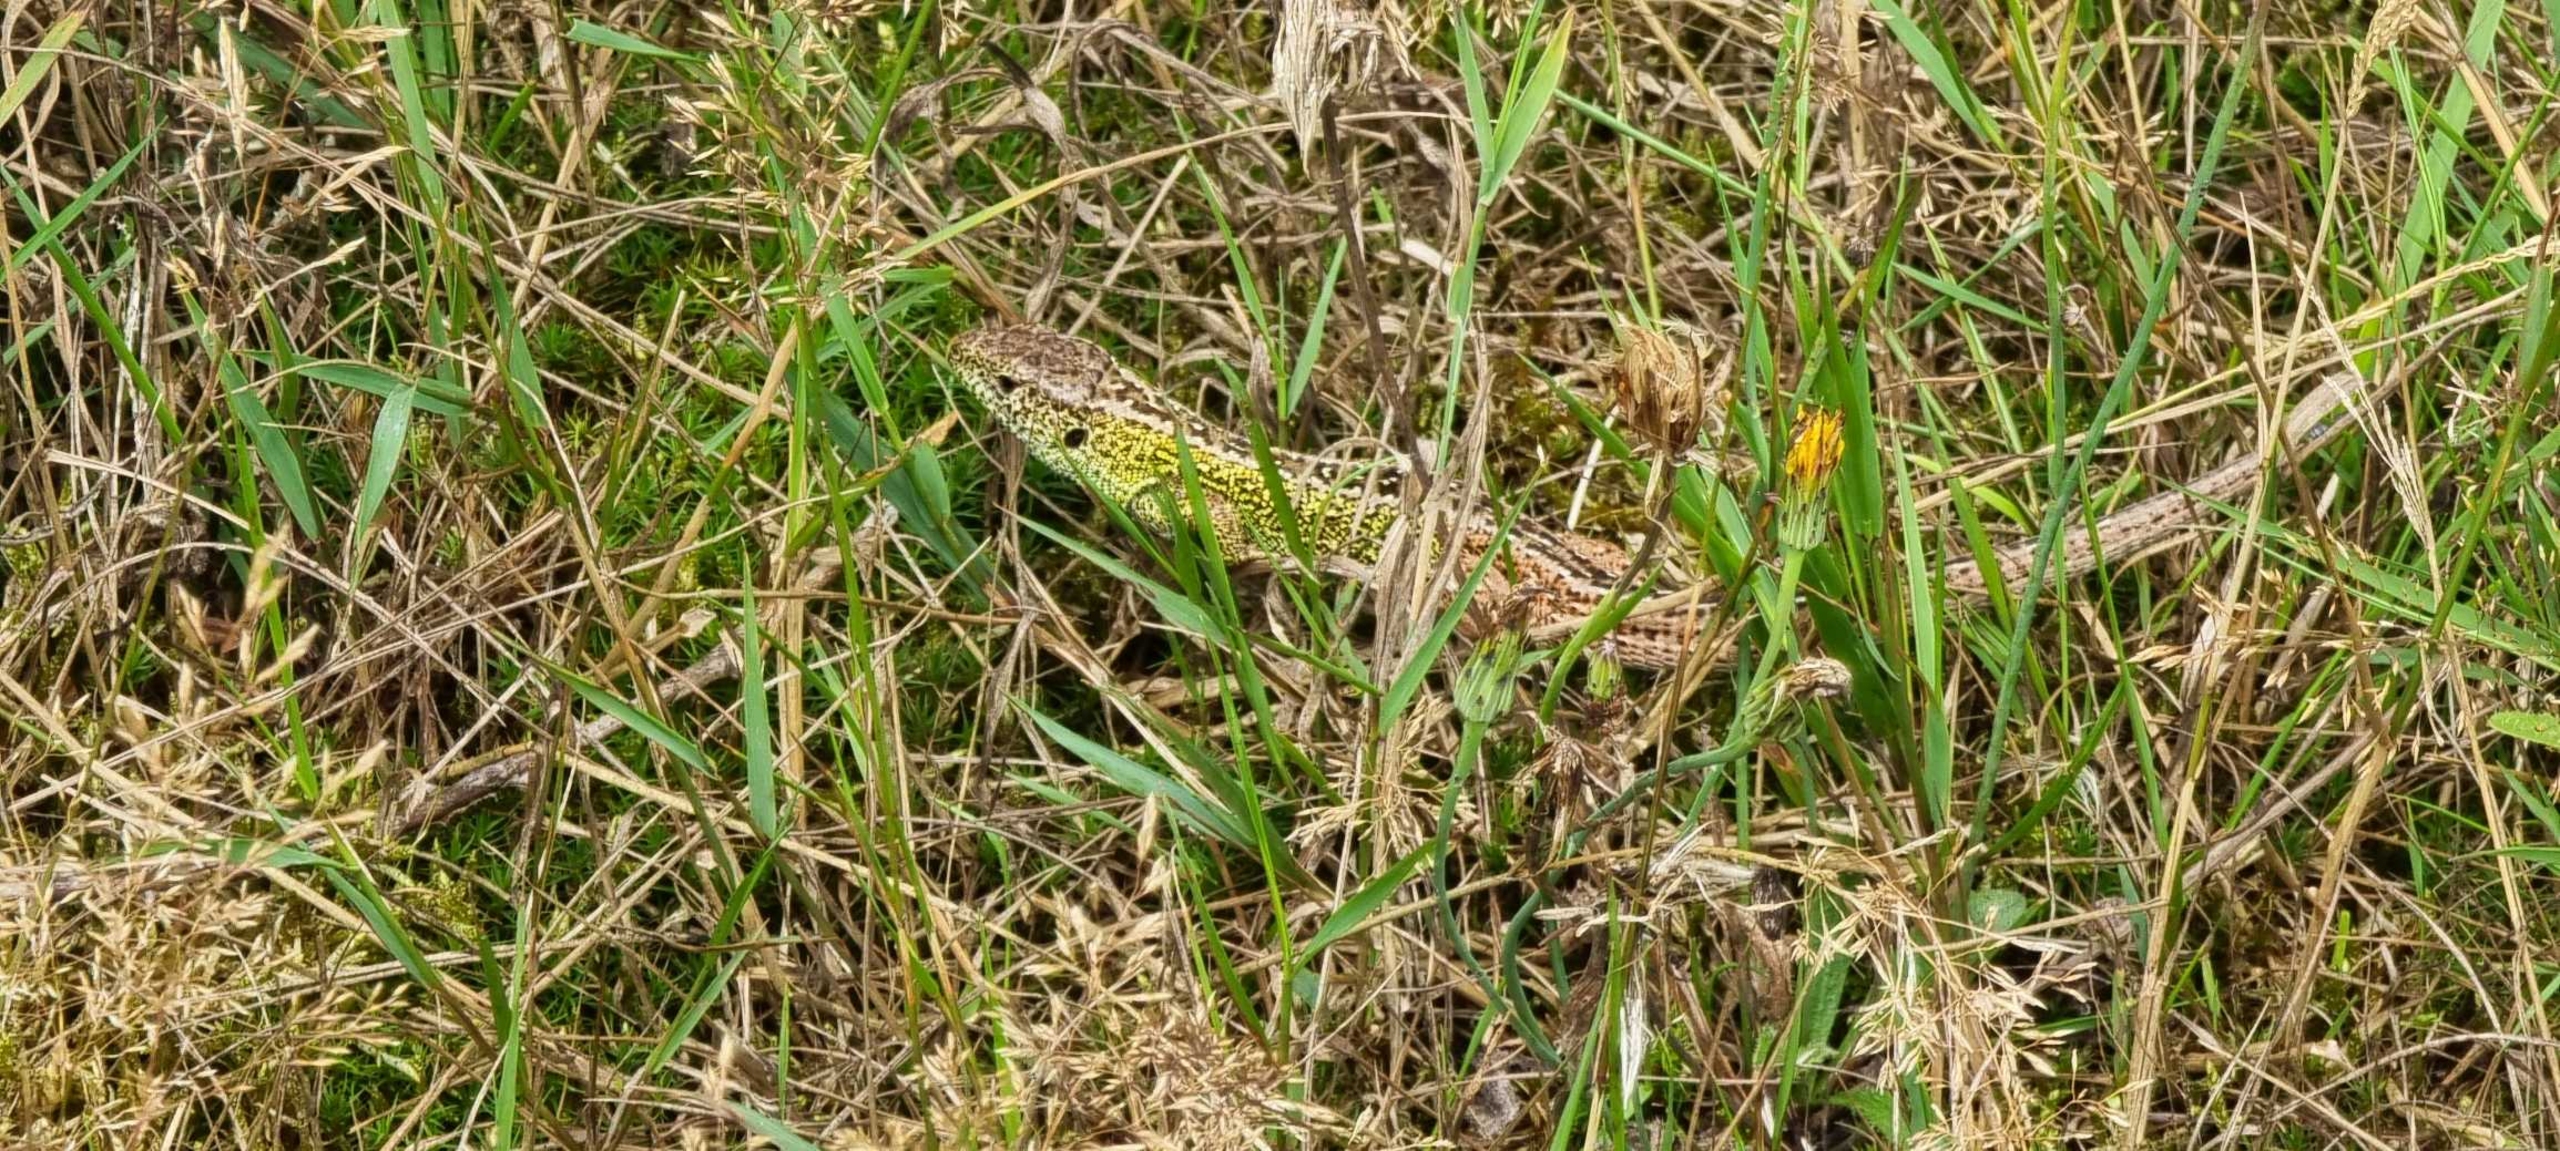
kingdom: Animalia
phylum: Chordata
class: Squamata
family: Lacertidae
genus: Lacerta
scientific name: Lacerta agilis
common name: Markfirben
